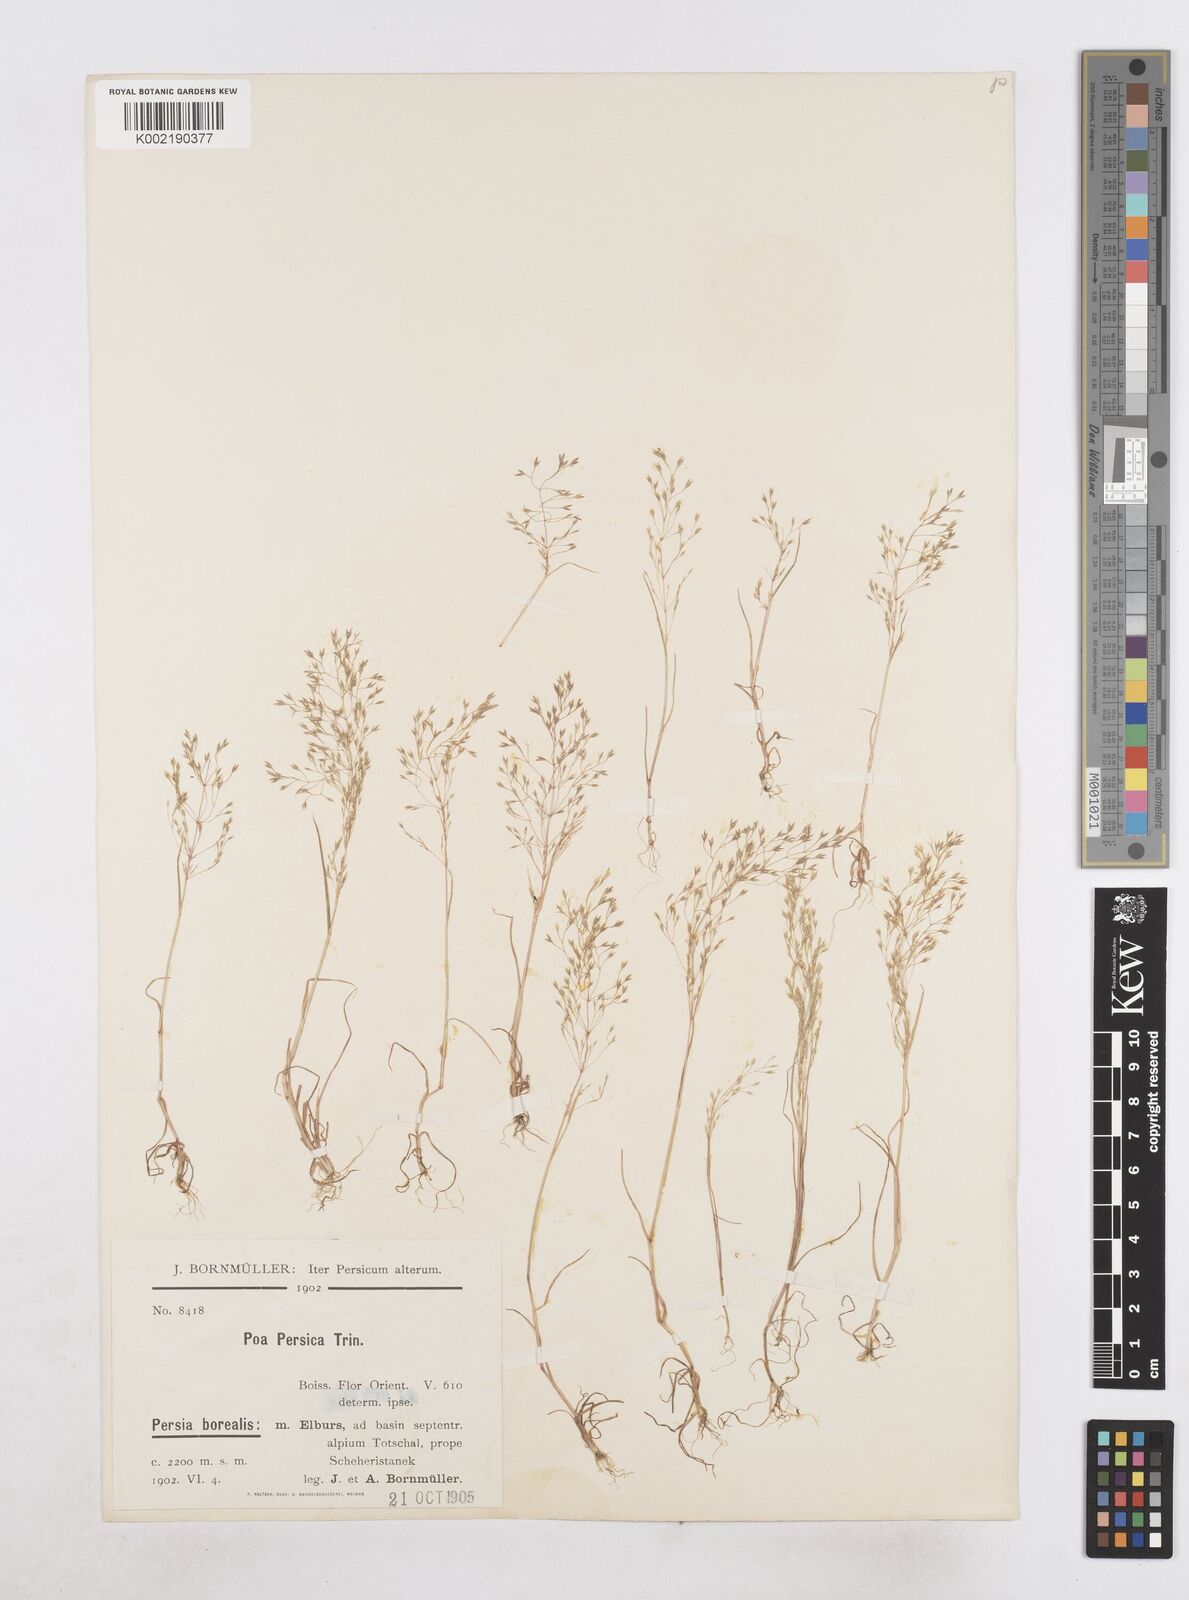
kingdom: Plantae
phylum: Tracheophyta
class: Liliopsida
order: Poales
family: Poaceae
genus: Poa
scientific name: Poa persica
